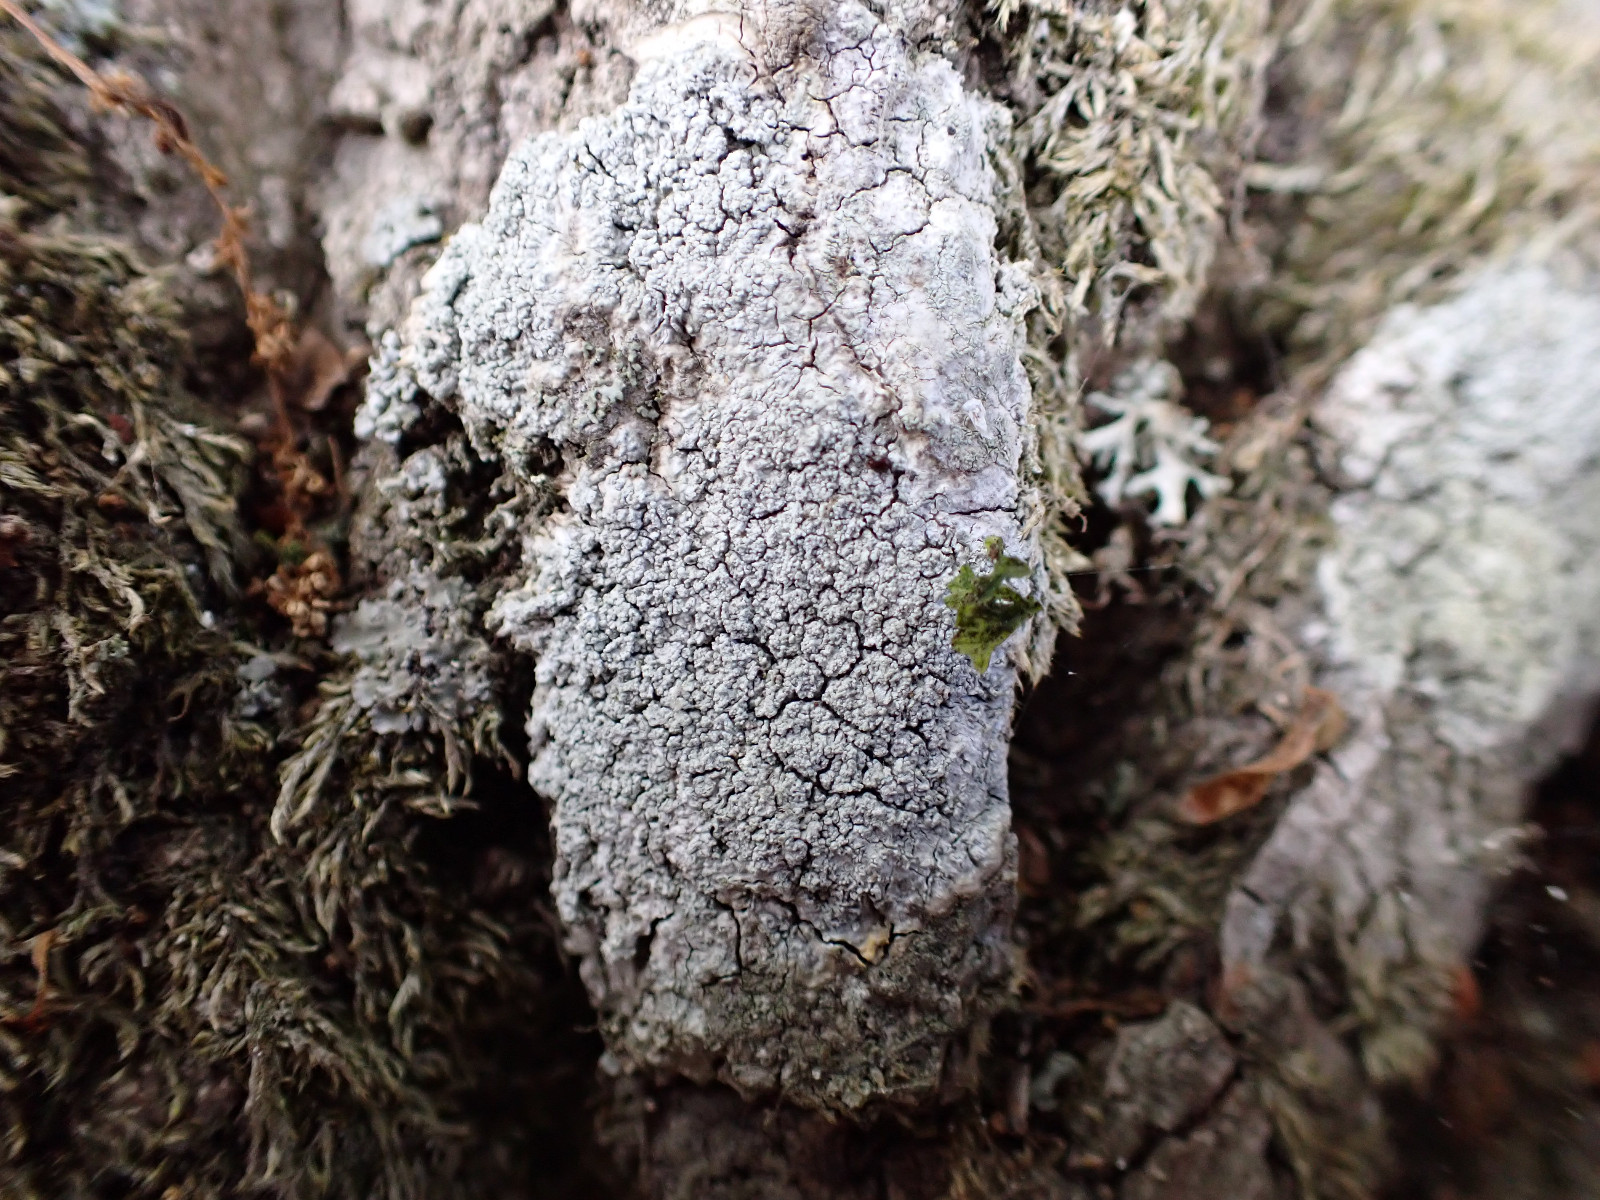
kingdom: Fungi
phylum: Ascomycota
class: Lecanoromycetes
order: Pertusariales
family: Pertusariaceae
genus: Lepra
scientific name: Lepra albescens
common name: hvidmelet prikvortelav
